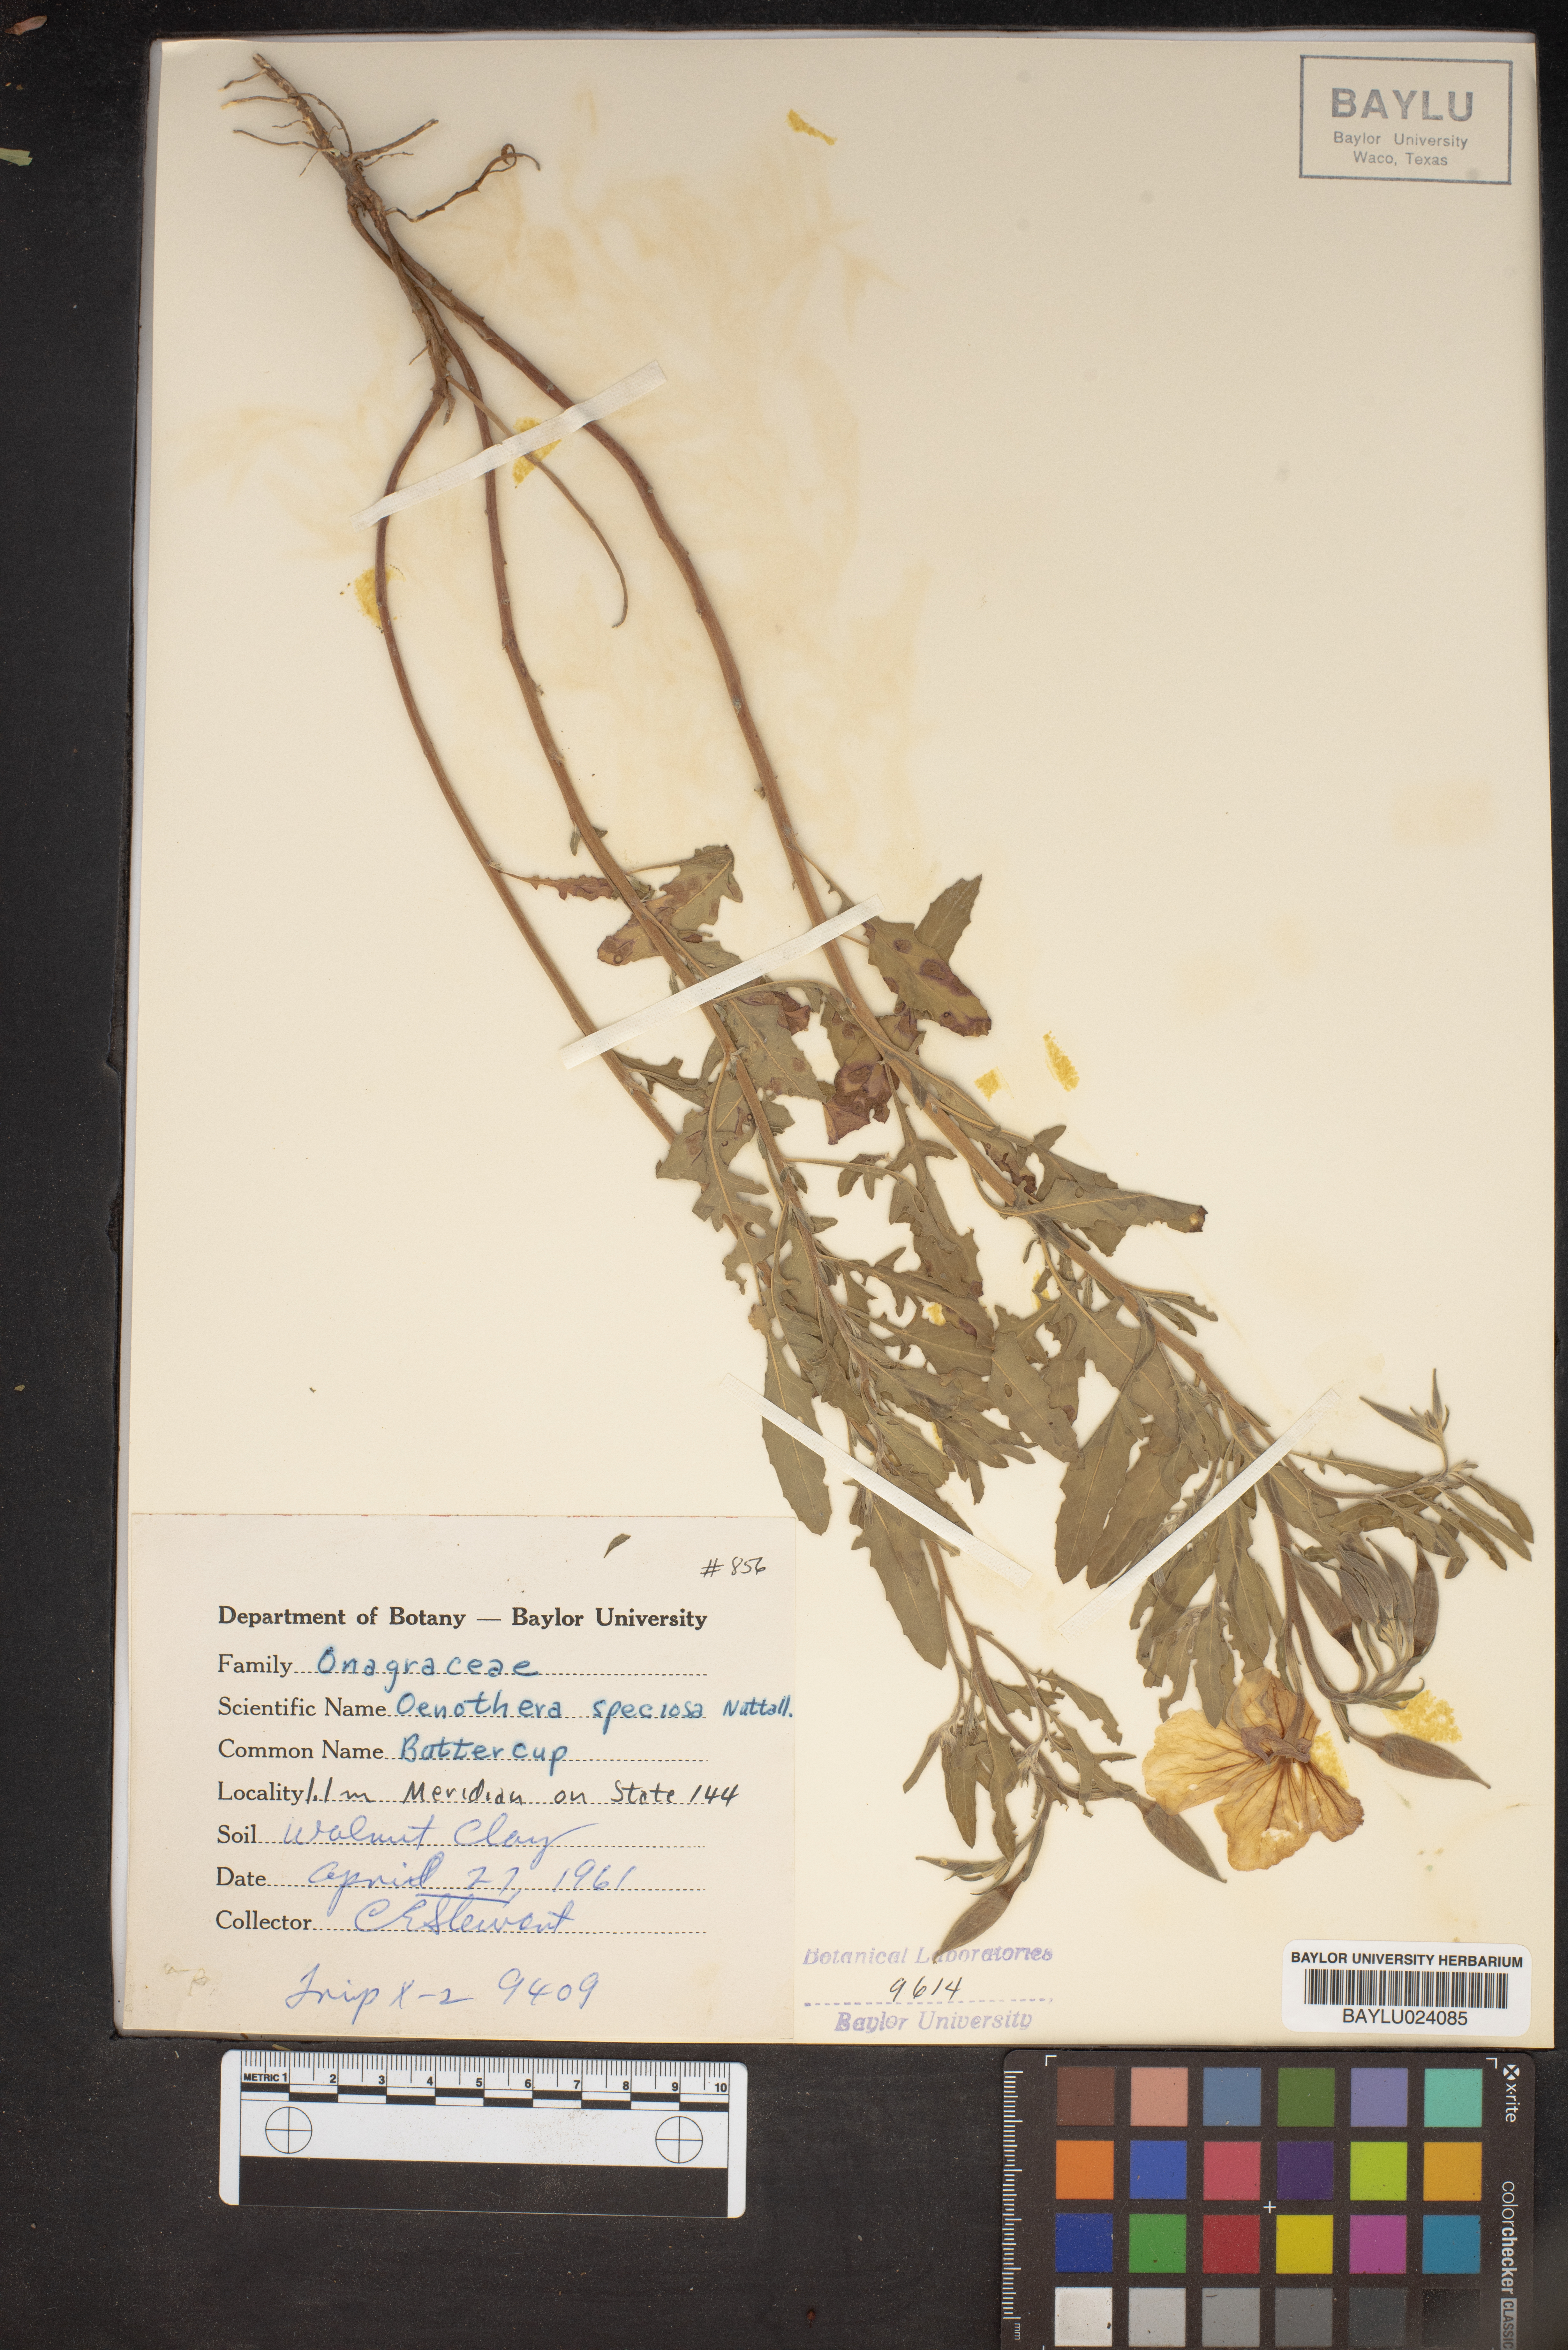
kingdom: Plantae
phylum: Tracheophyta
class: Magnoliopsida
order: Myrtales
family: Onagraceae
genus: Oenothera
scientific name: Oenothera speciosa
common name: White evening-primrose
